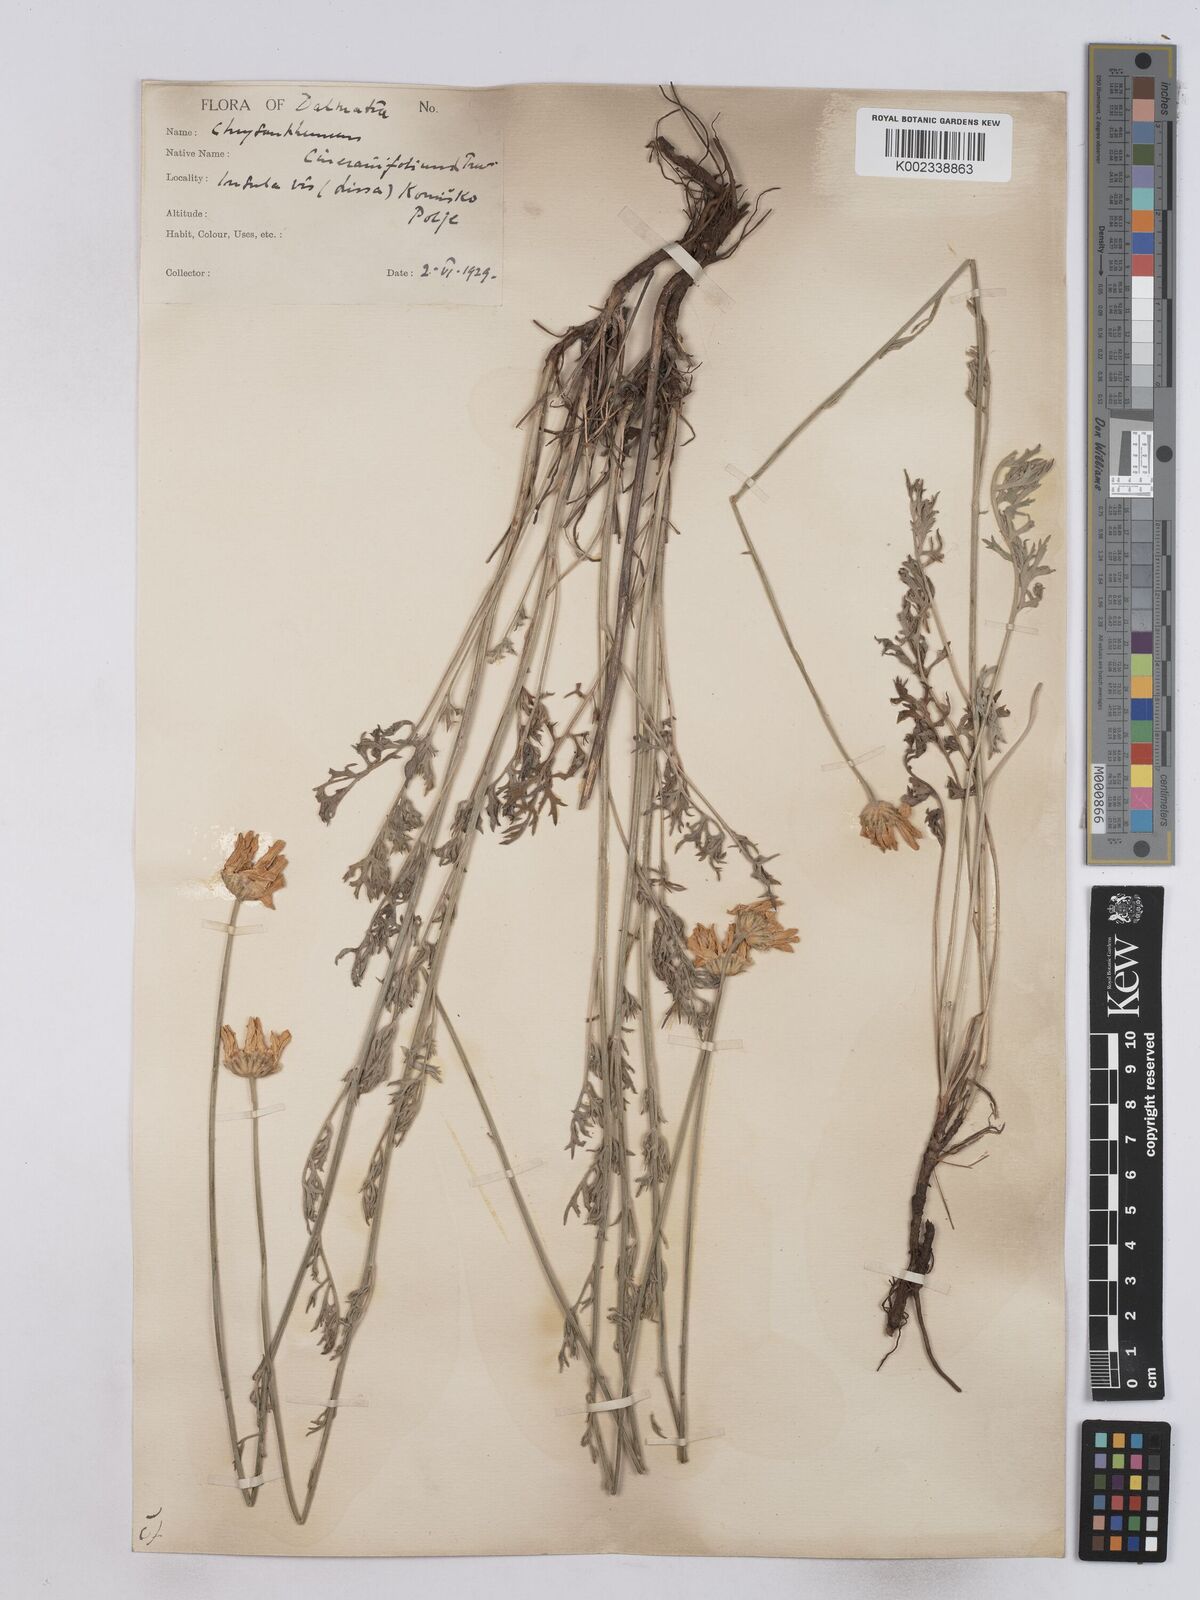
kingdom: Plantae
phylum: Tracheophyta
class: Magnoliopsida
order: Asterales
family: Asteraceae
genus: Tanacetum
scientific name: Tanacetum cinerariifolium
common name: Dalmatian pyrethrum
